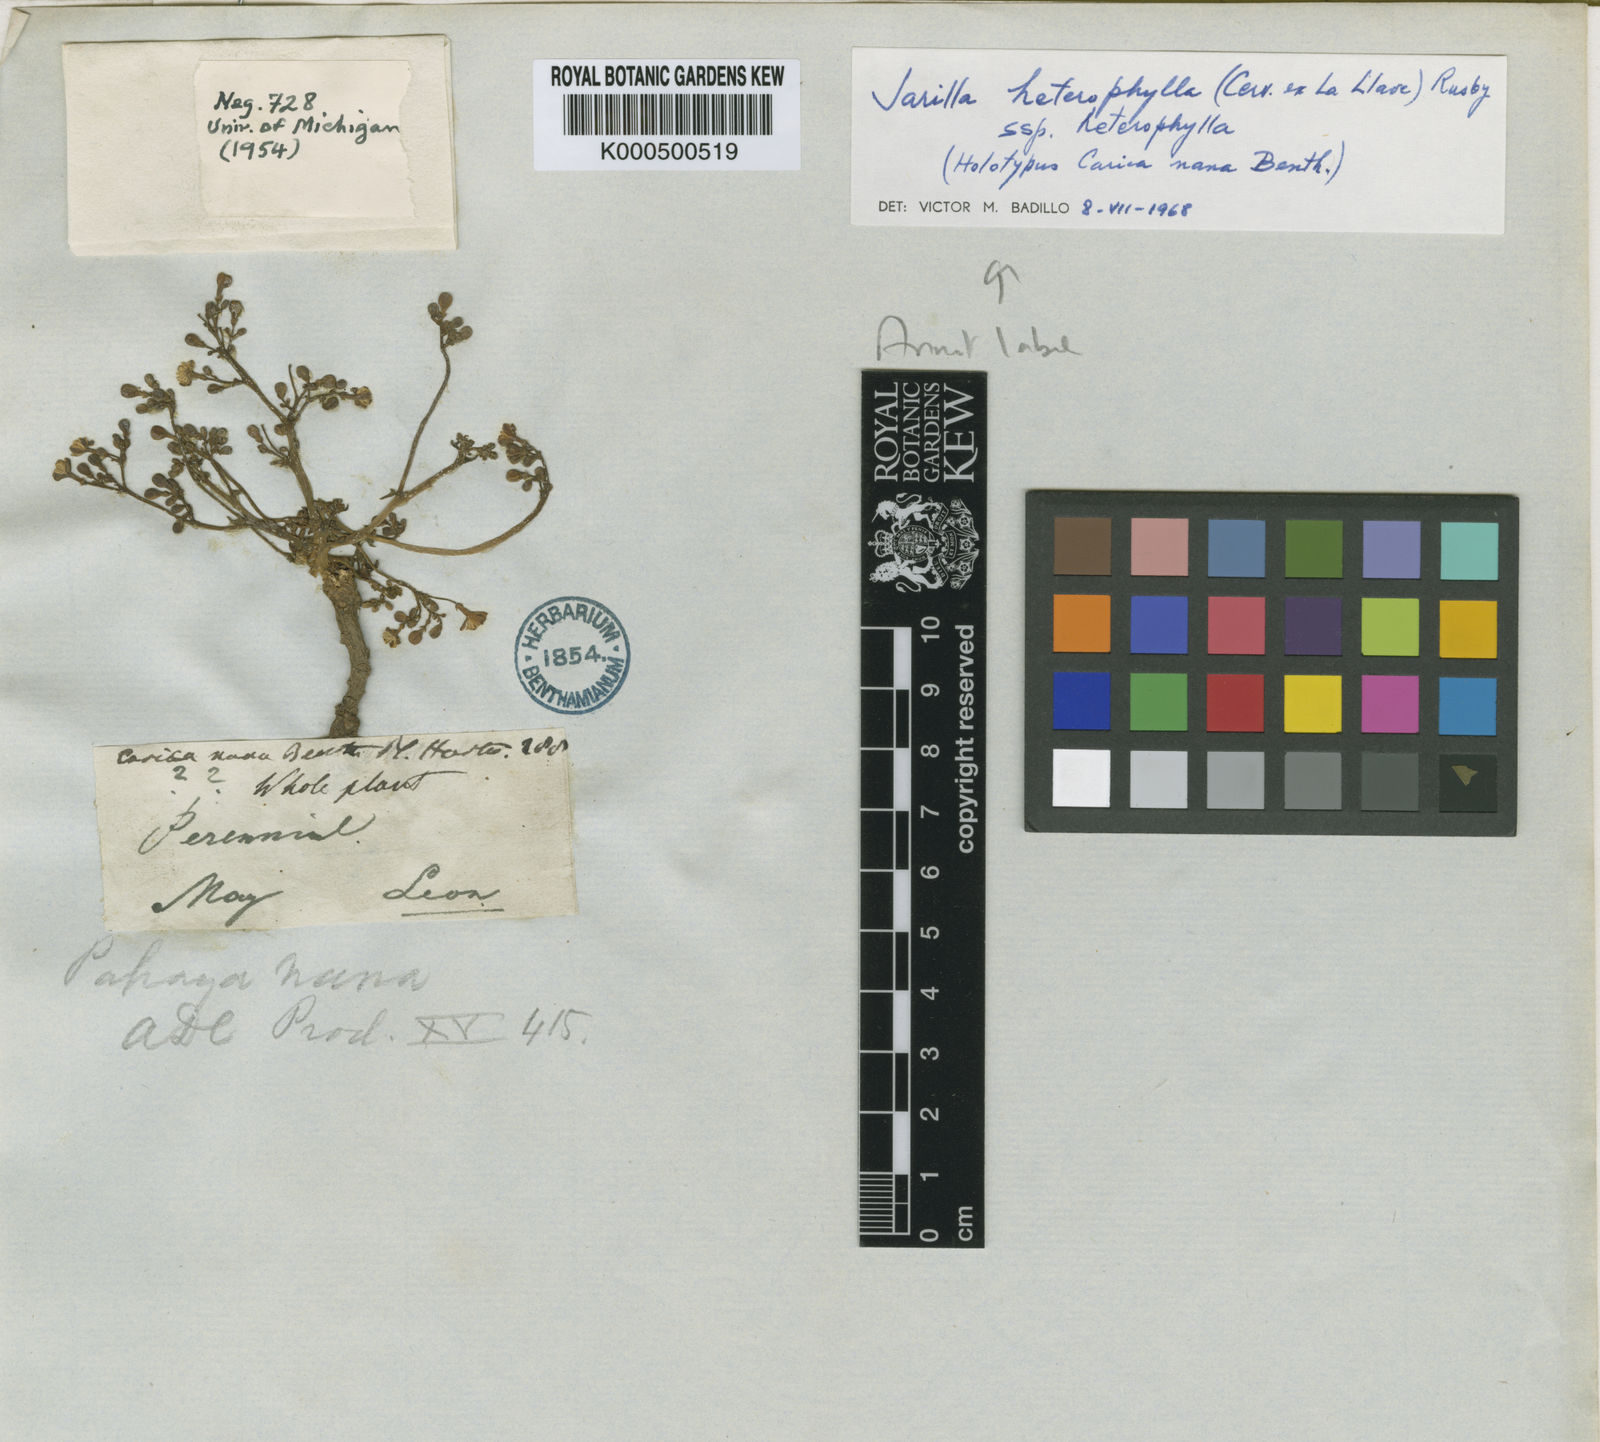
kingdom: Plantae
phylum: Tracheophyta
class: Magnoliopsida
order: Brassicales
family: Caricaceae
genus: Jarilla
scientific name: Jarilla nana
